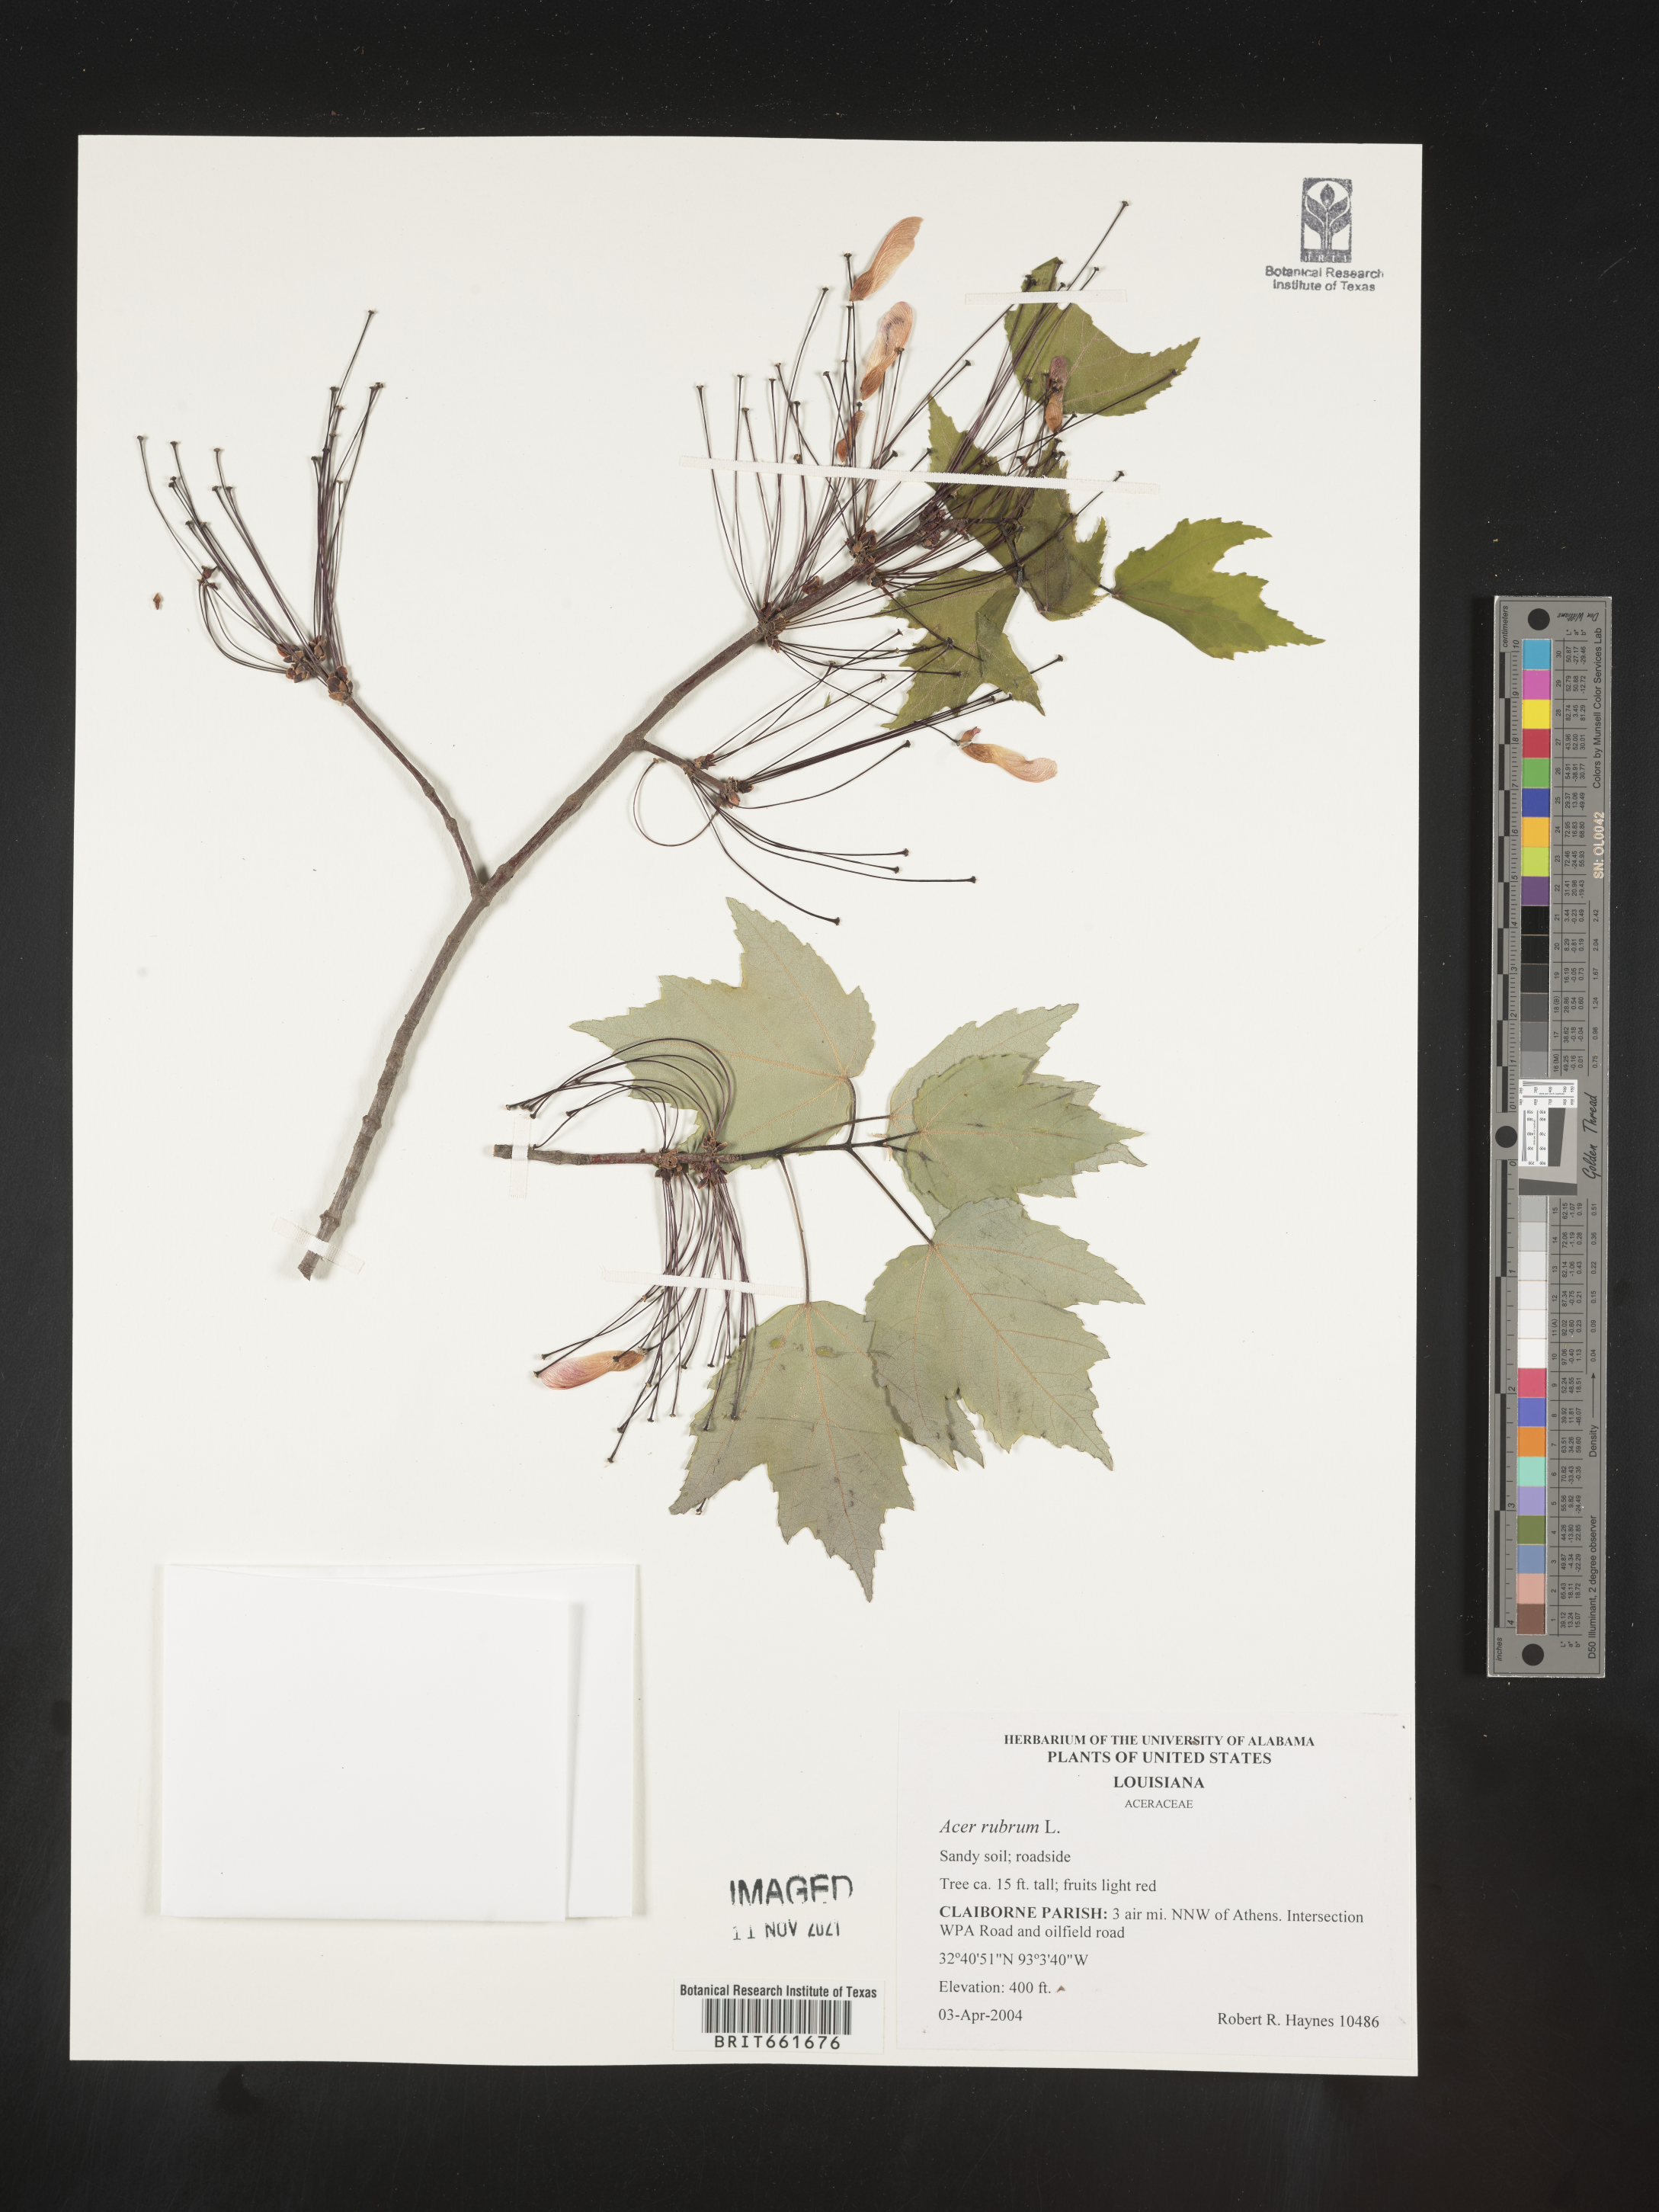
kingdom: Plantae
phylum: Tracheophyta
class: Magnoliopsida
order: Sapindales
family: Sapindaceae
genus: Acer
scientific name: Acer rubrum
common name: Red maple
